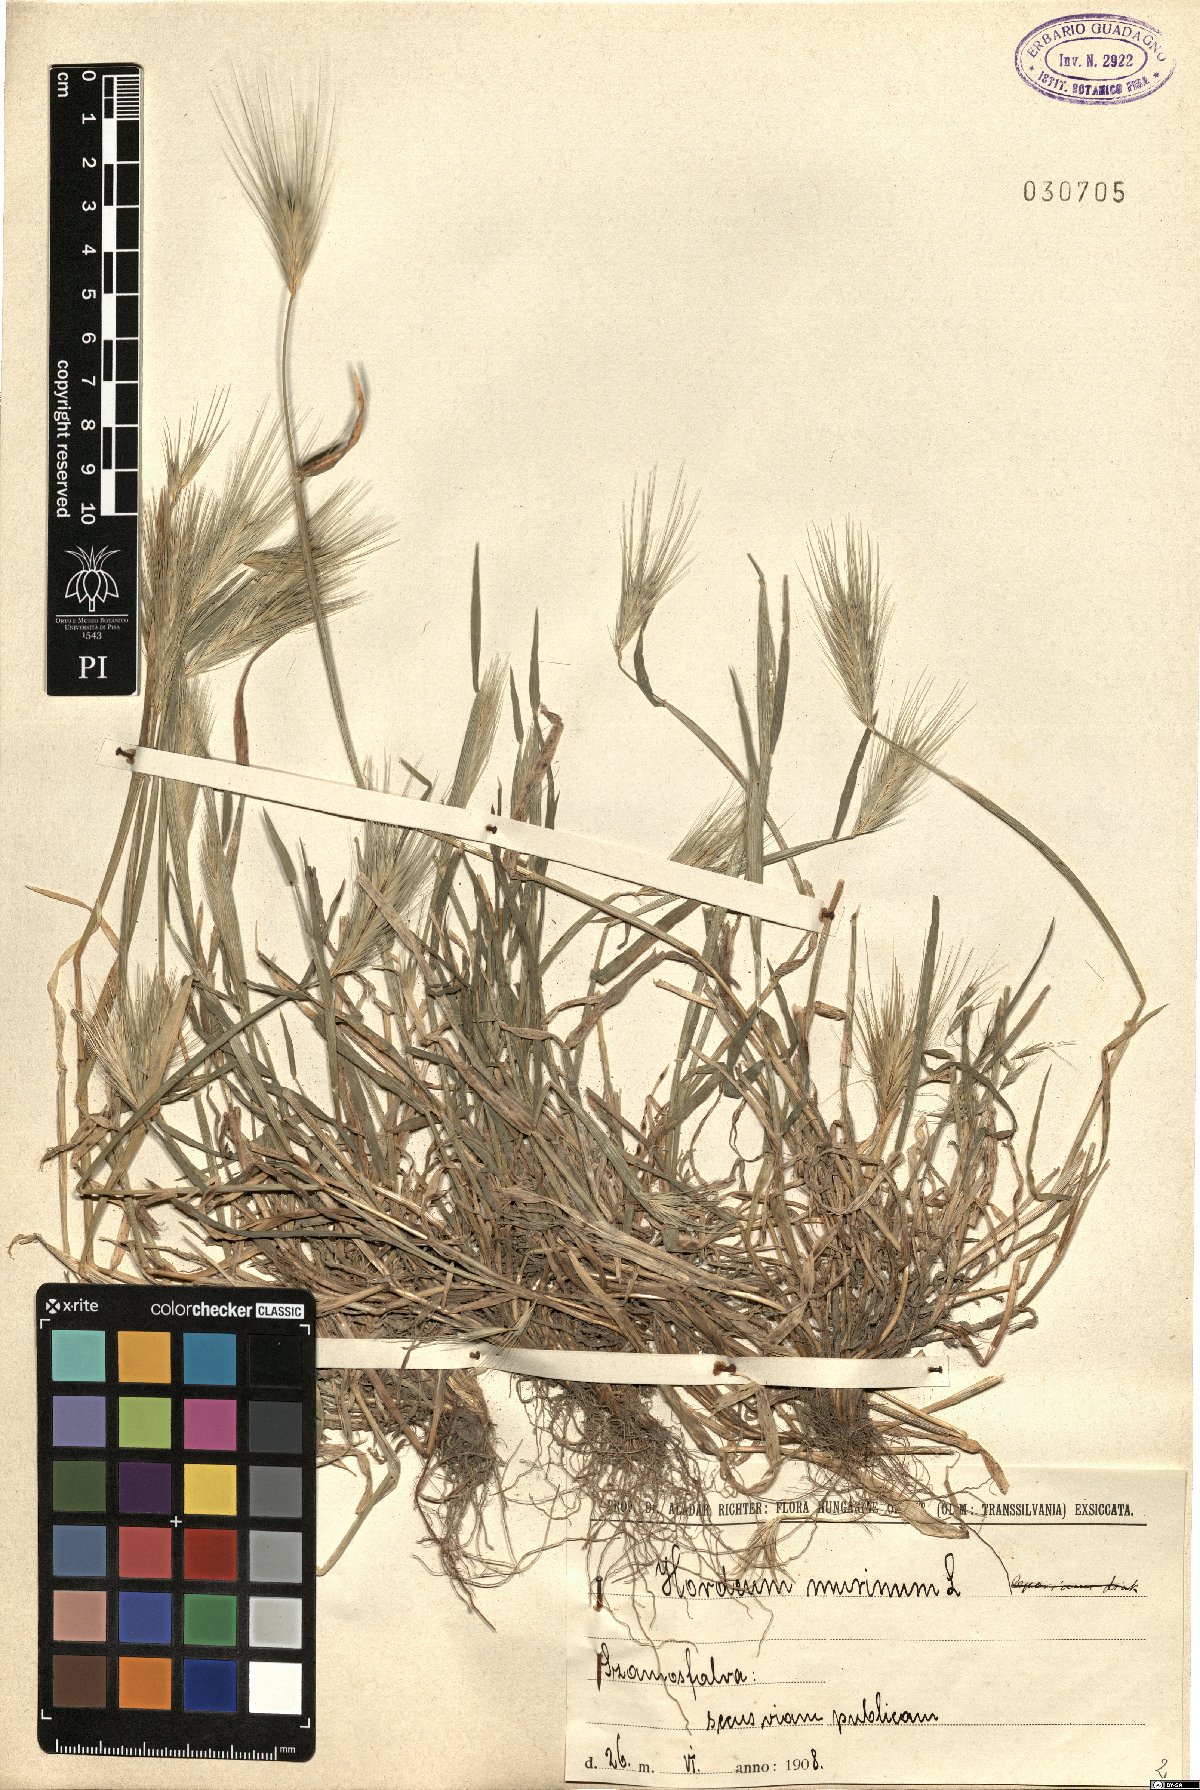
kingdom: Plantae
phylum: Tracheophyta
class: Liliopsida
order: Poales
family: Poaceae
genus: Hordeum
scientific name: Hordeum murinum
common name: Wall barley
